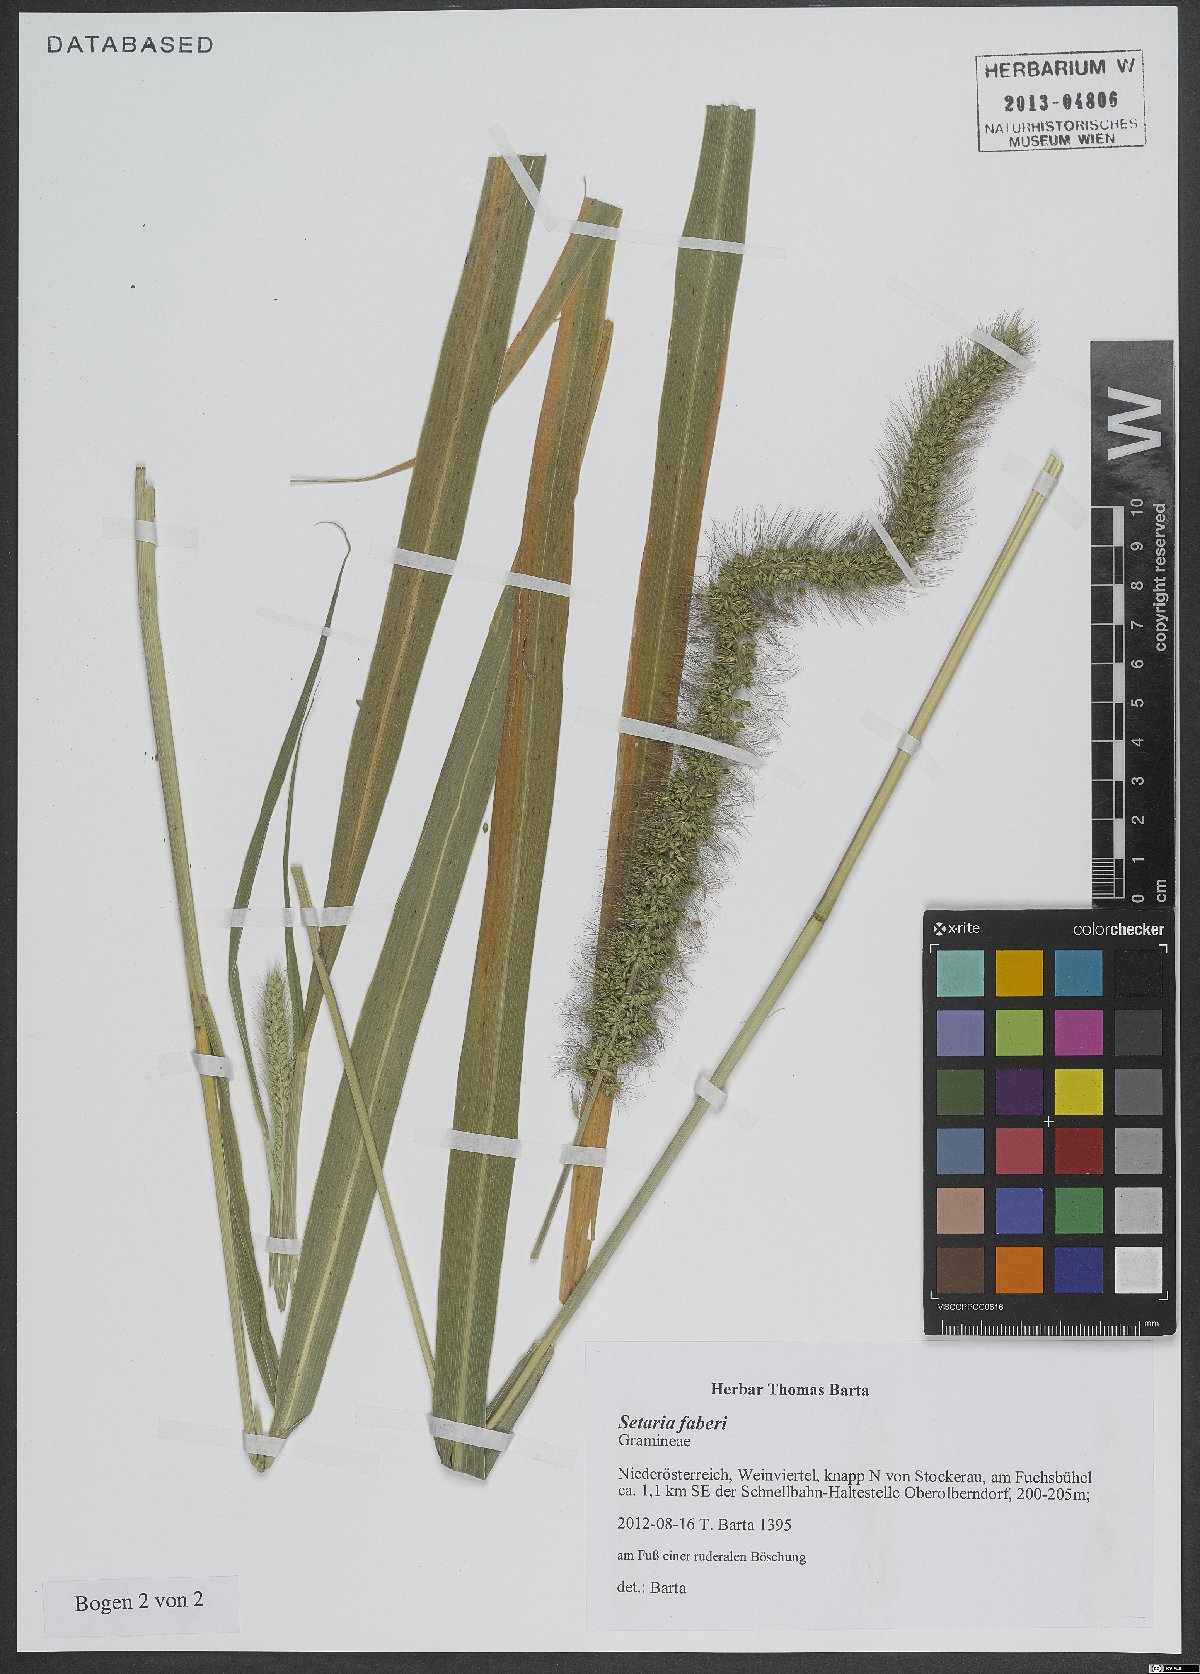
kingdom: Plantae
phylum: Tracheophyta
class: Liliopsida
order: Poales
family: Poaceae
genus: Setaria
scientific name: Setaria faberi
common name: Nodding bristle-grass
